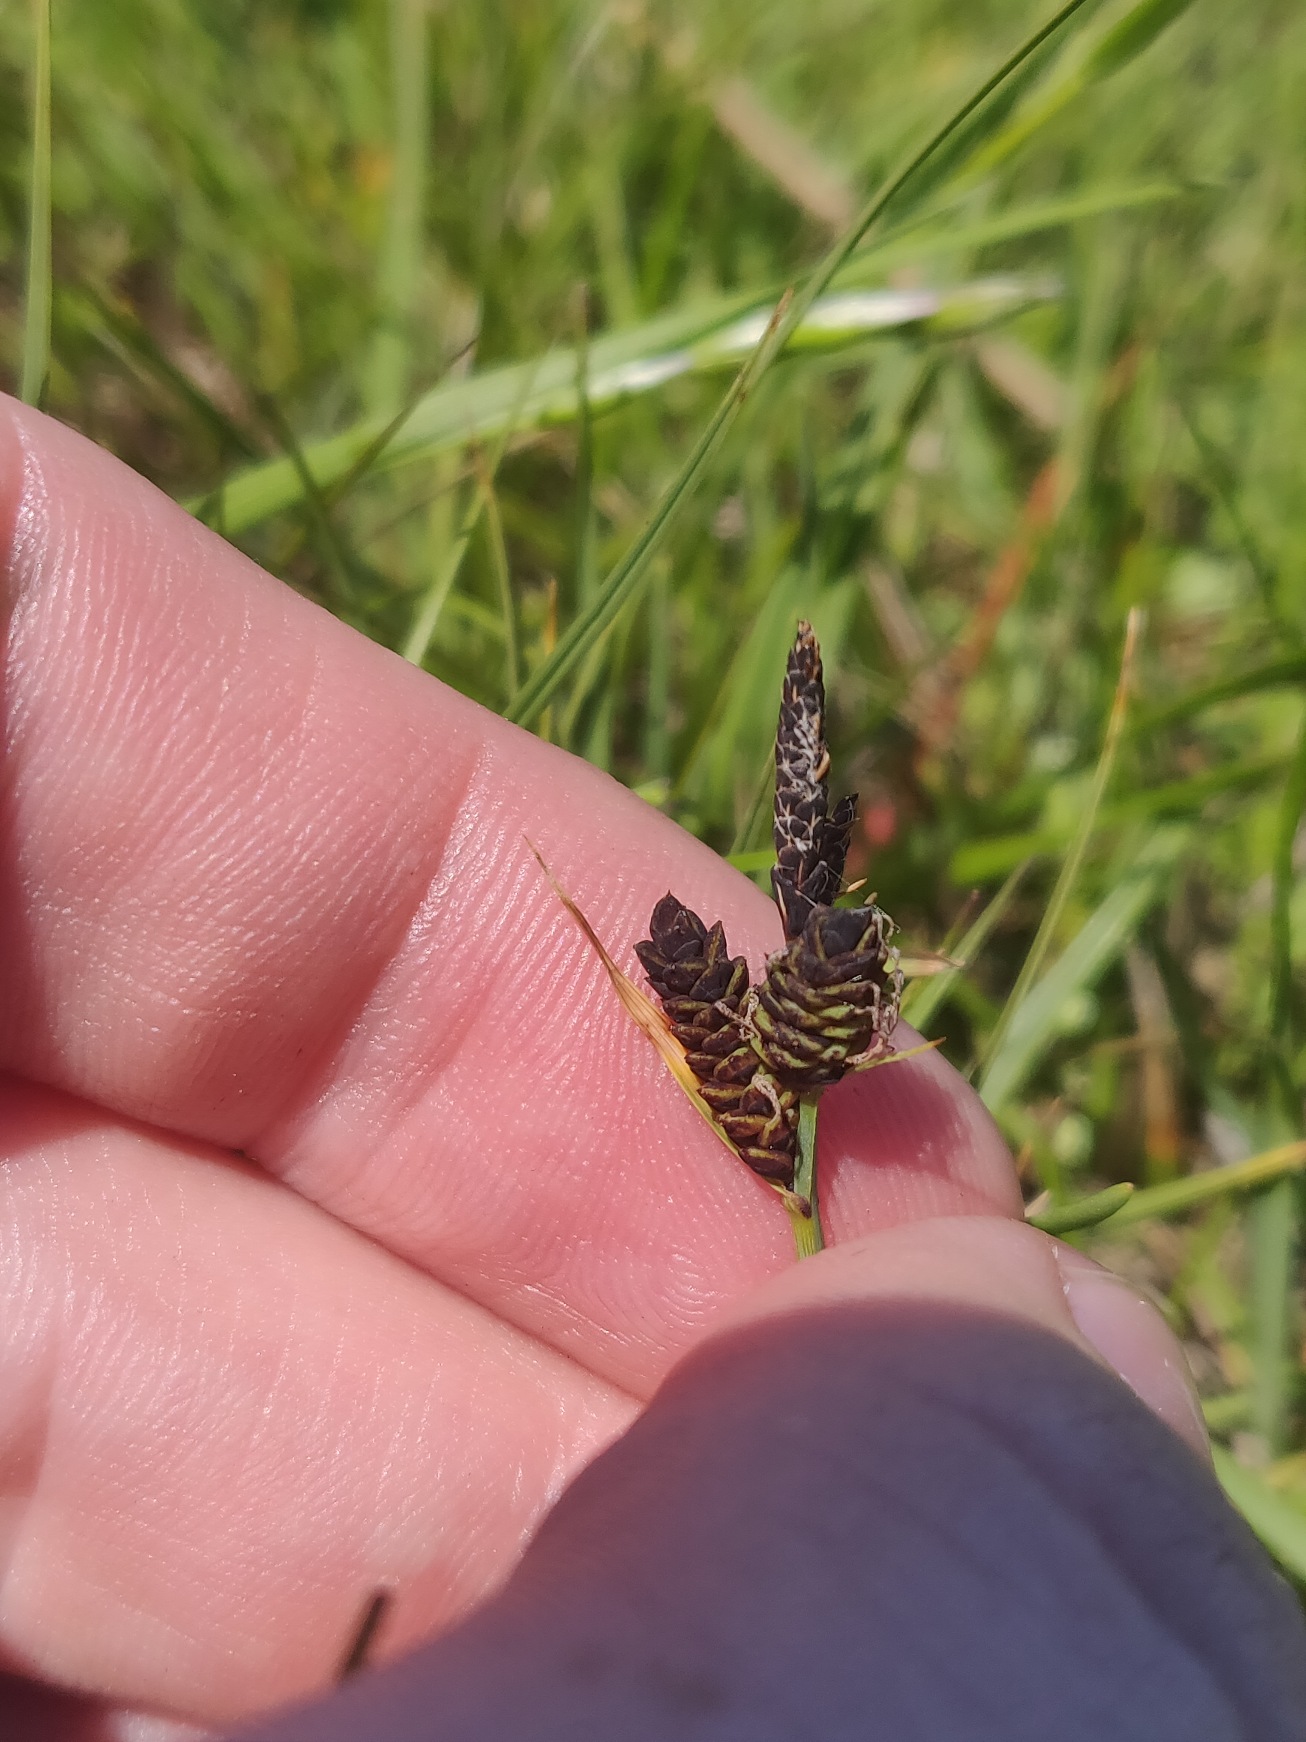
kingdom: Plantae
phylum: Tracheophyta
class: Liliopsida
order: Poales
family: Cyperaceae
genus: Carex
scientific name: Carex nigra
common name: Almindelig star
